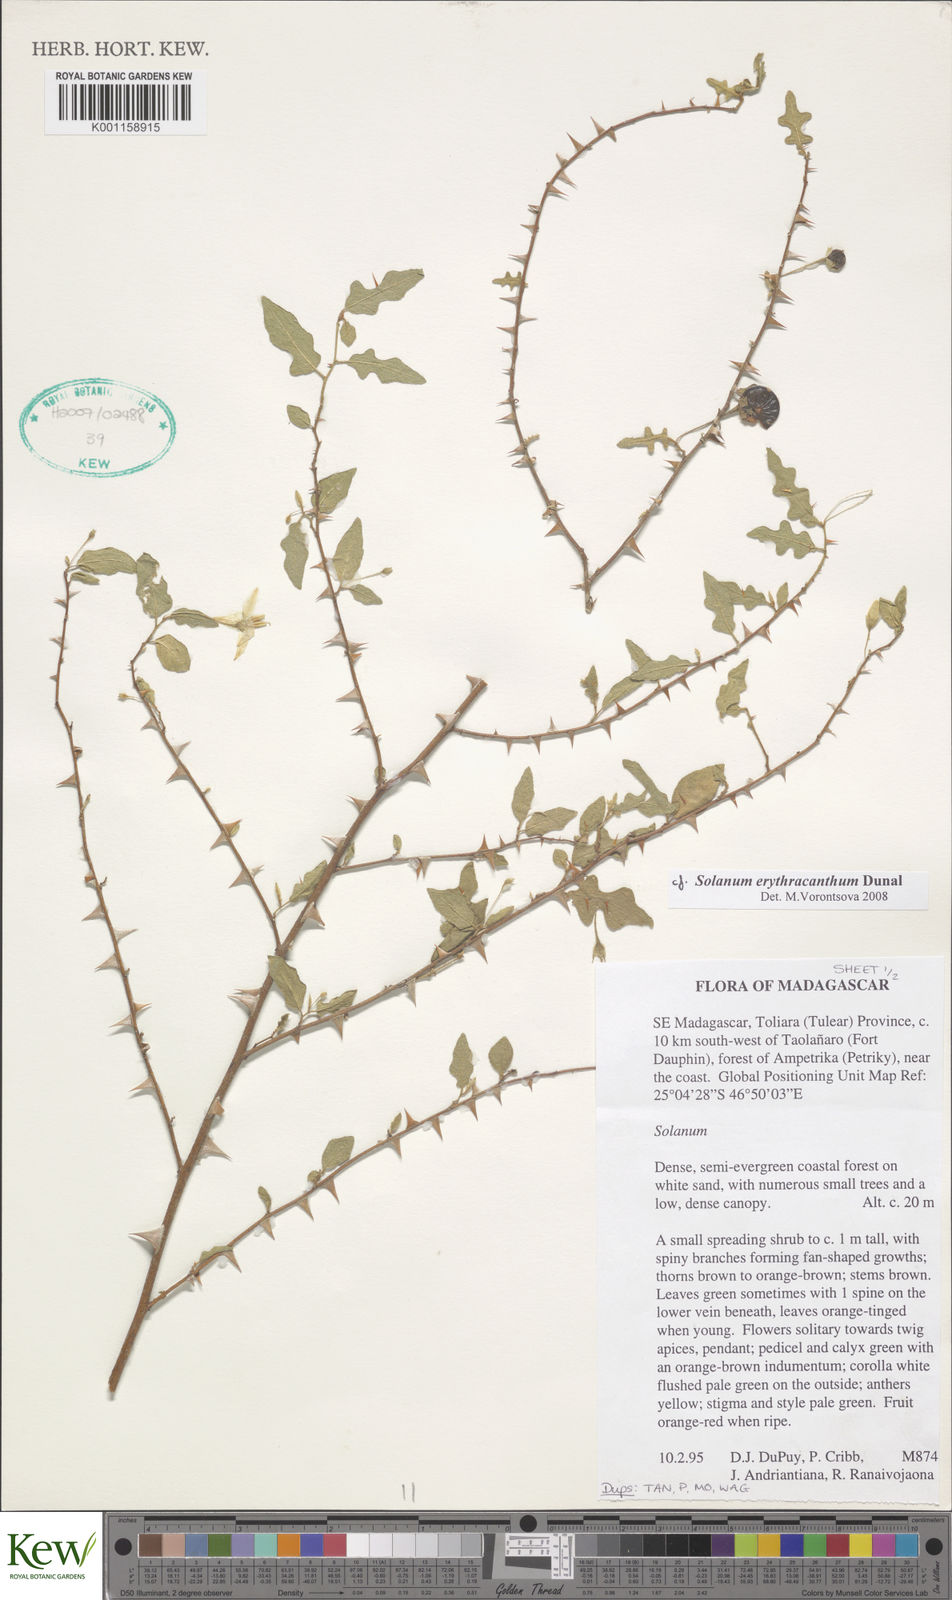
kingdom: Plantae
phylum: Tracheophyta
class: Magnoliopsida
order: Solanales
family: Solanaceae
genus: Solanum
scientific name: Solanum erythracanthum
